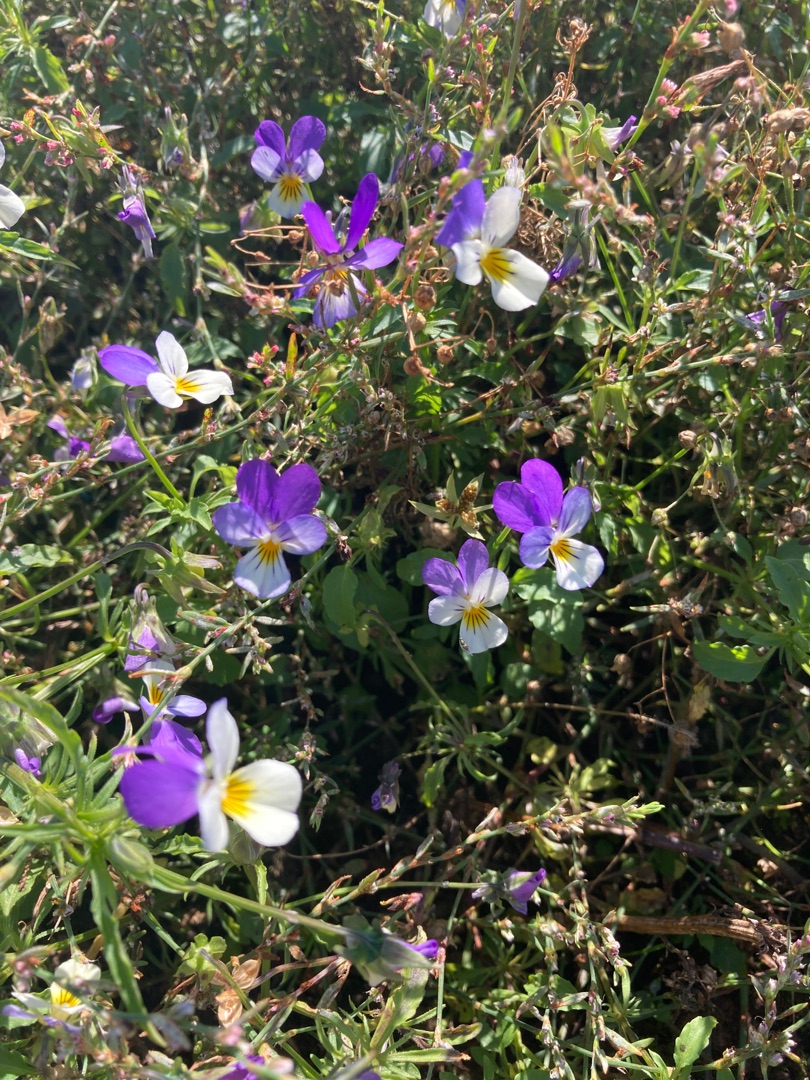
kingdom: Plantae
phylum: Tracheophyta
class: Magnoliopsida
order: Malpighiales
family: Violaceae
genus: Viola
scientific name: Viola tricolor
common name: Stedmoderblomst
